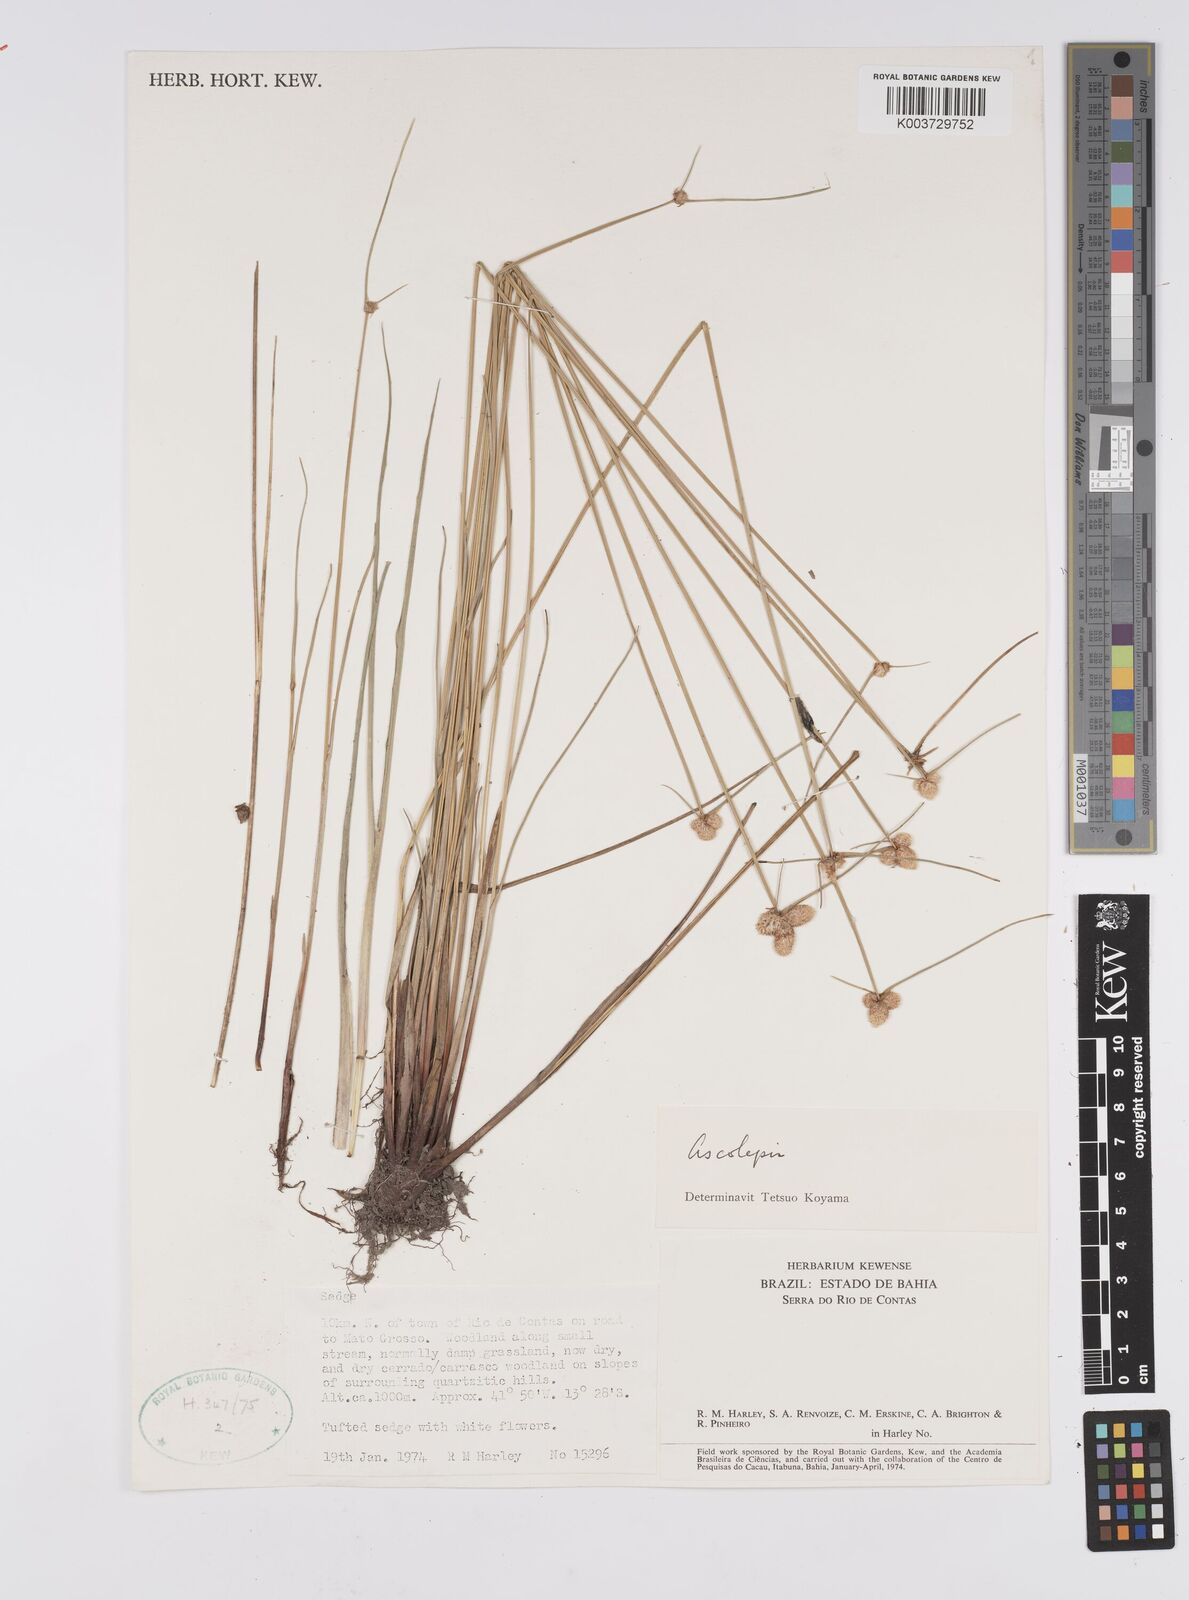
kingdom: Plantae
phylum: Tracheophyta
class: Liliopsida
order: Poales
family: Cyperaceae
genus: Cyperus
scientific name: Cyperus brasiliensis
